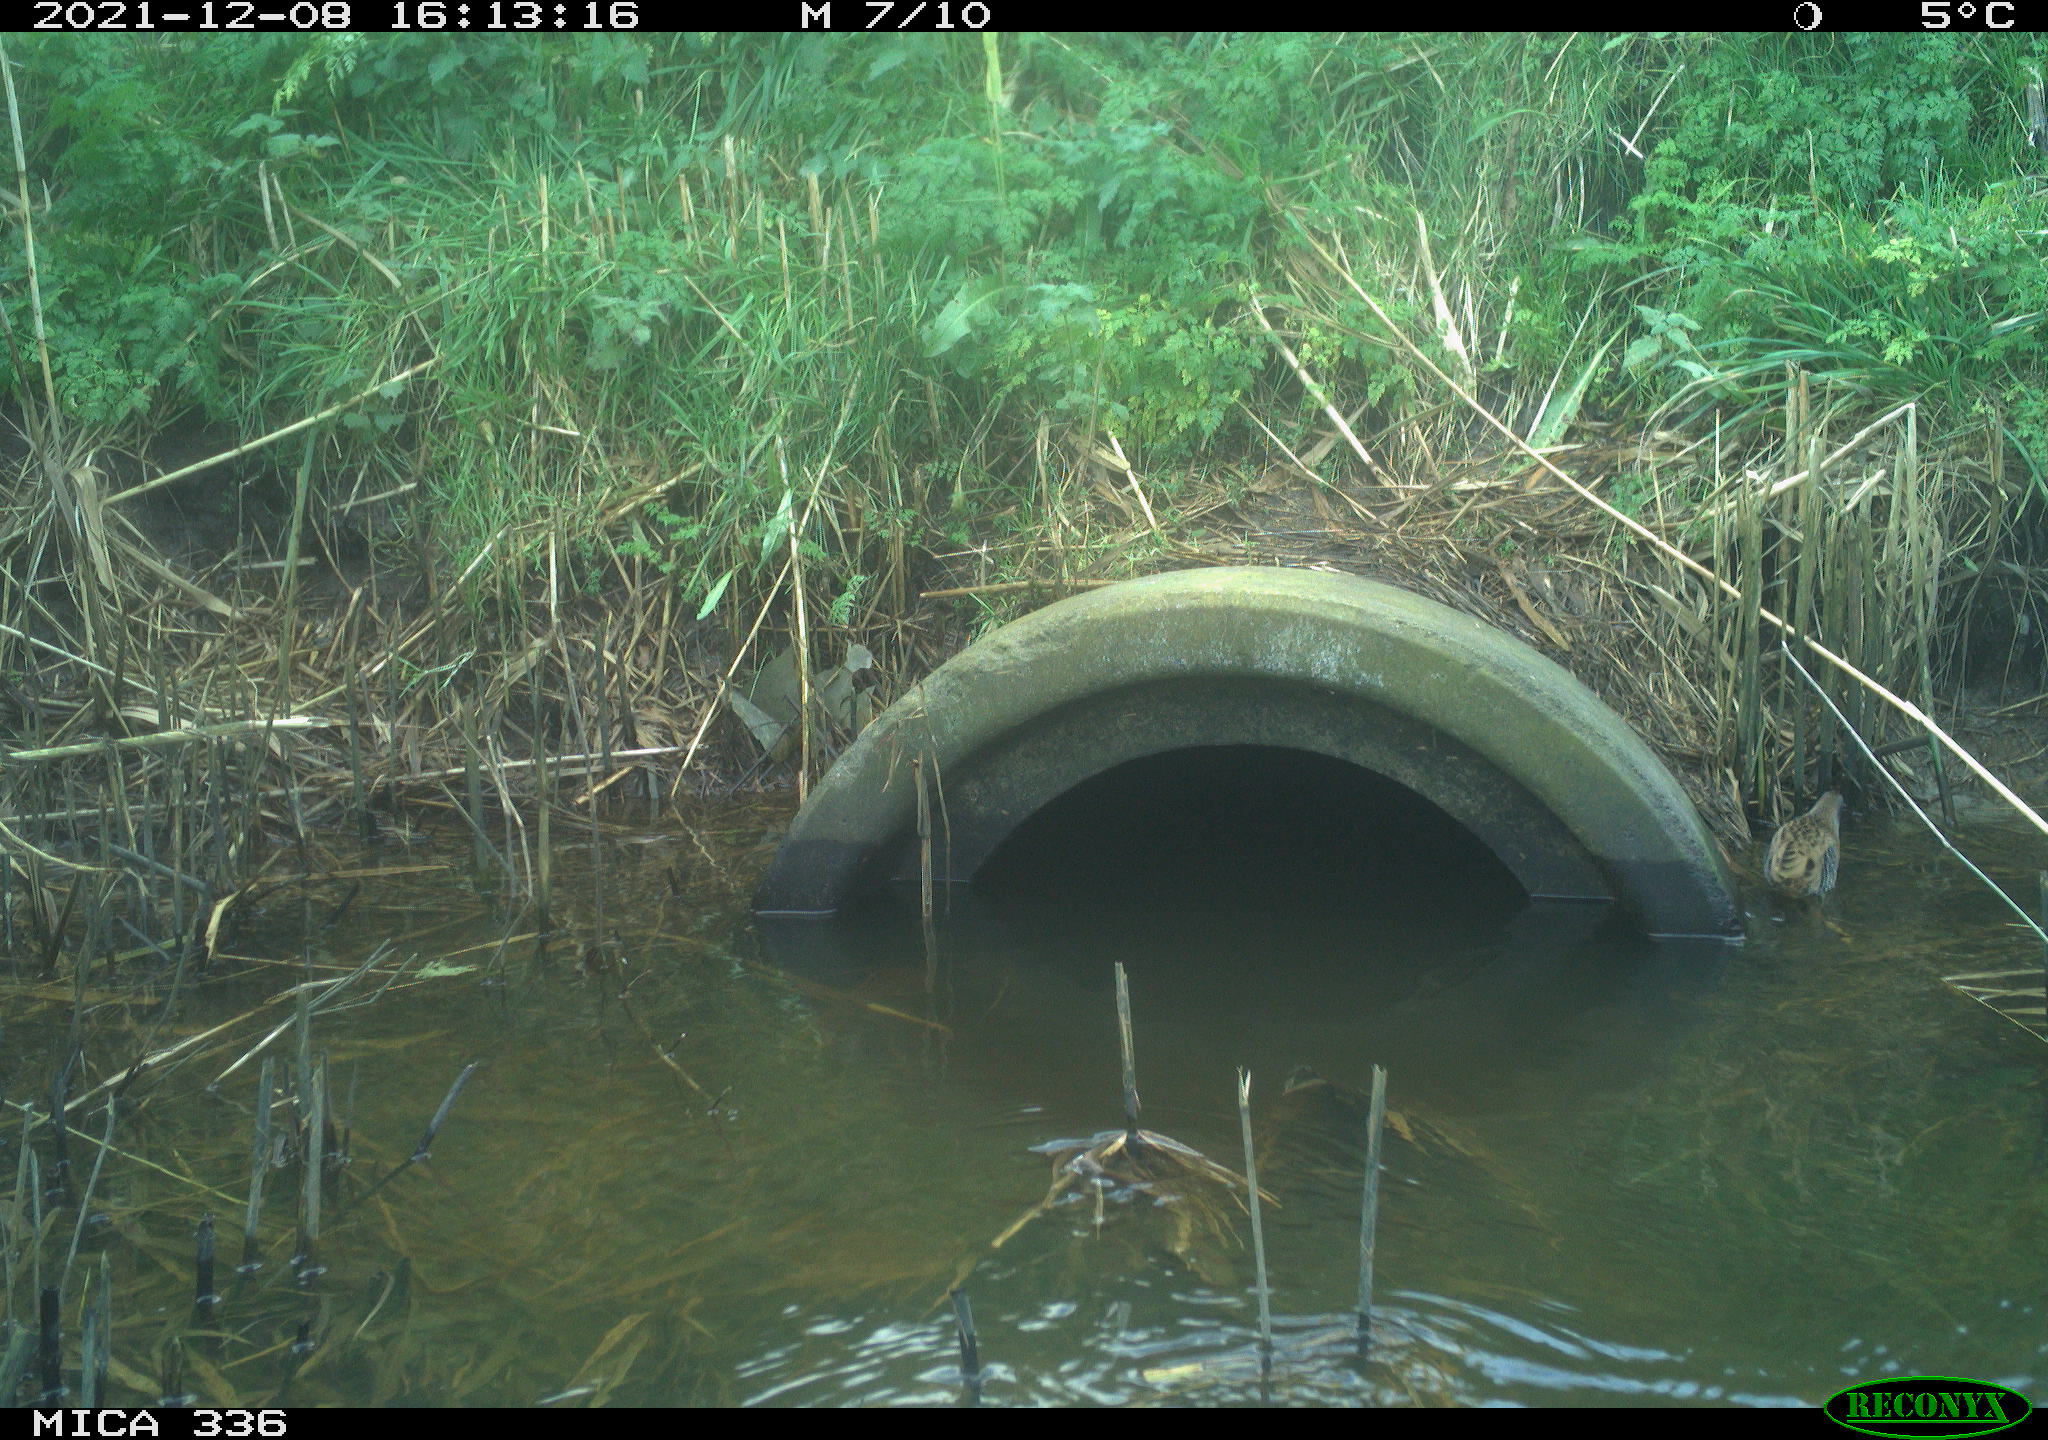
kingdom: Animalia
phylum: Chordata
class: Aves
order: Gruiformes
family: Rallidae
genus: Gallinula
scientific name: Gallinula chloropus
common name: Common moorhen
